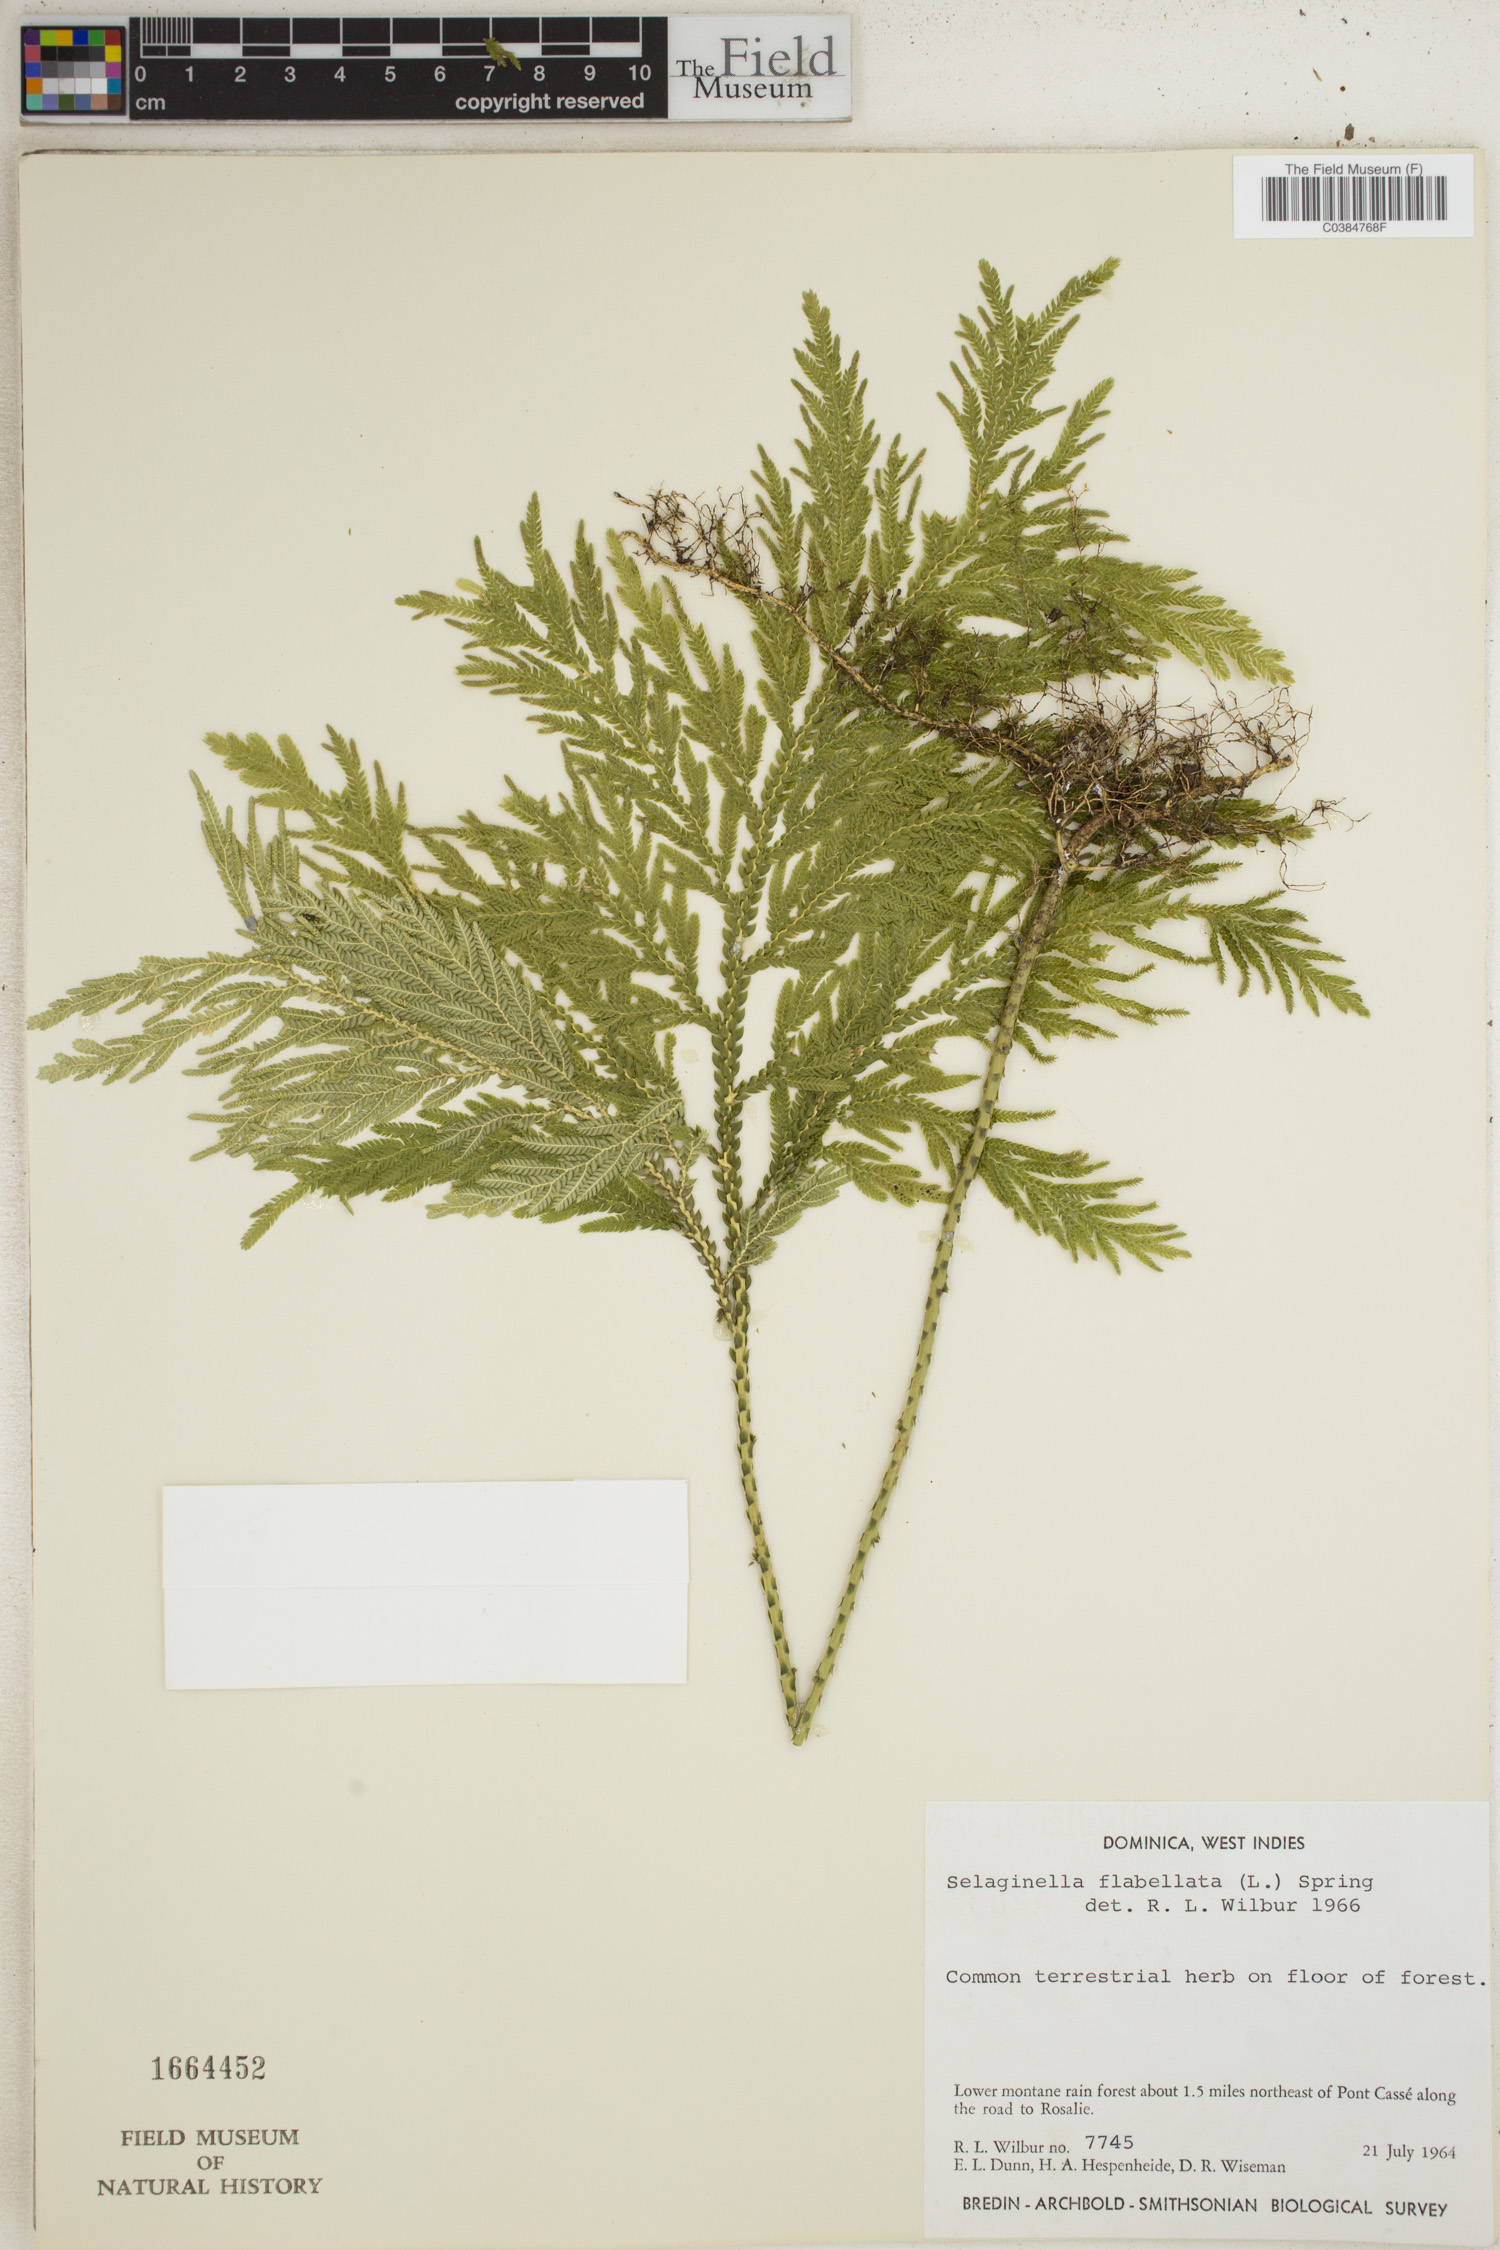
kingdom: Plantae
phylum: Tracheophyta
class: Lycopodiopsida
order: Selaginellales
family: Selaginellaceae
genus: Selaginella
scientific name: Selaginella flabellata
